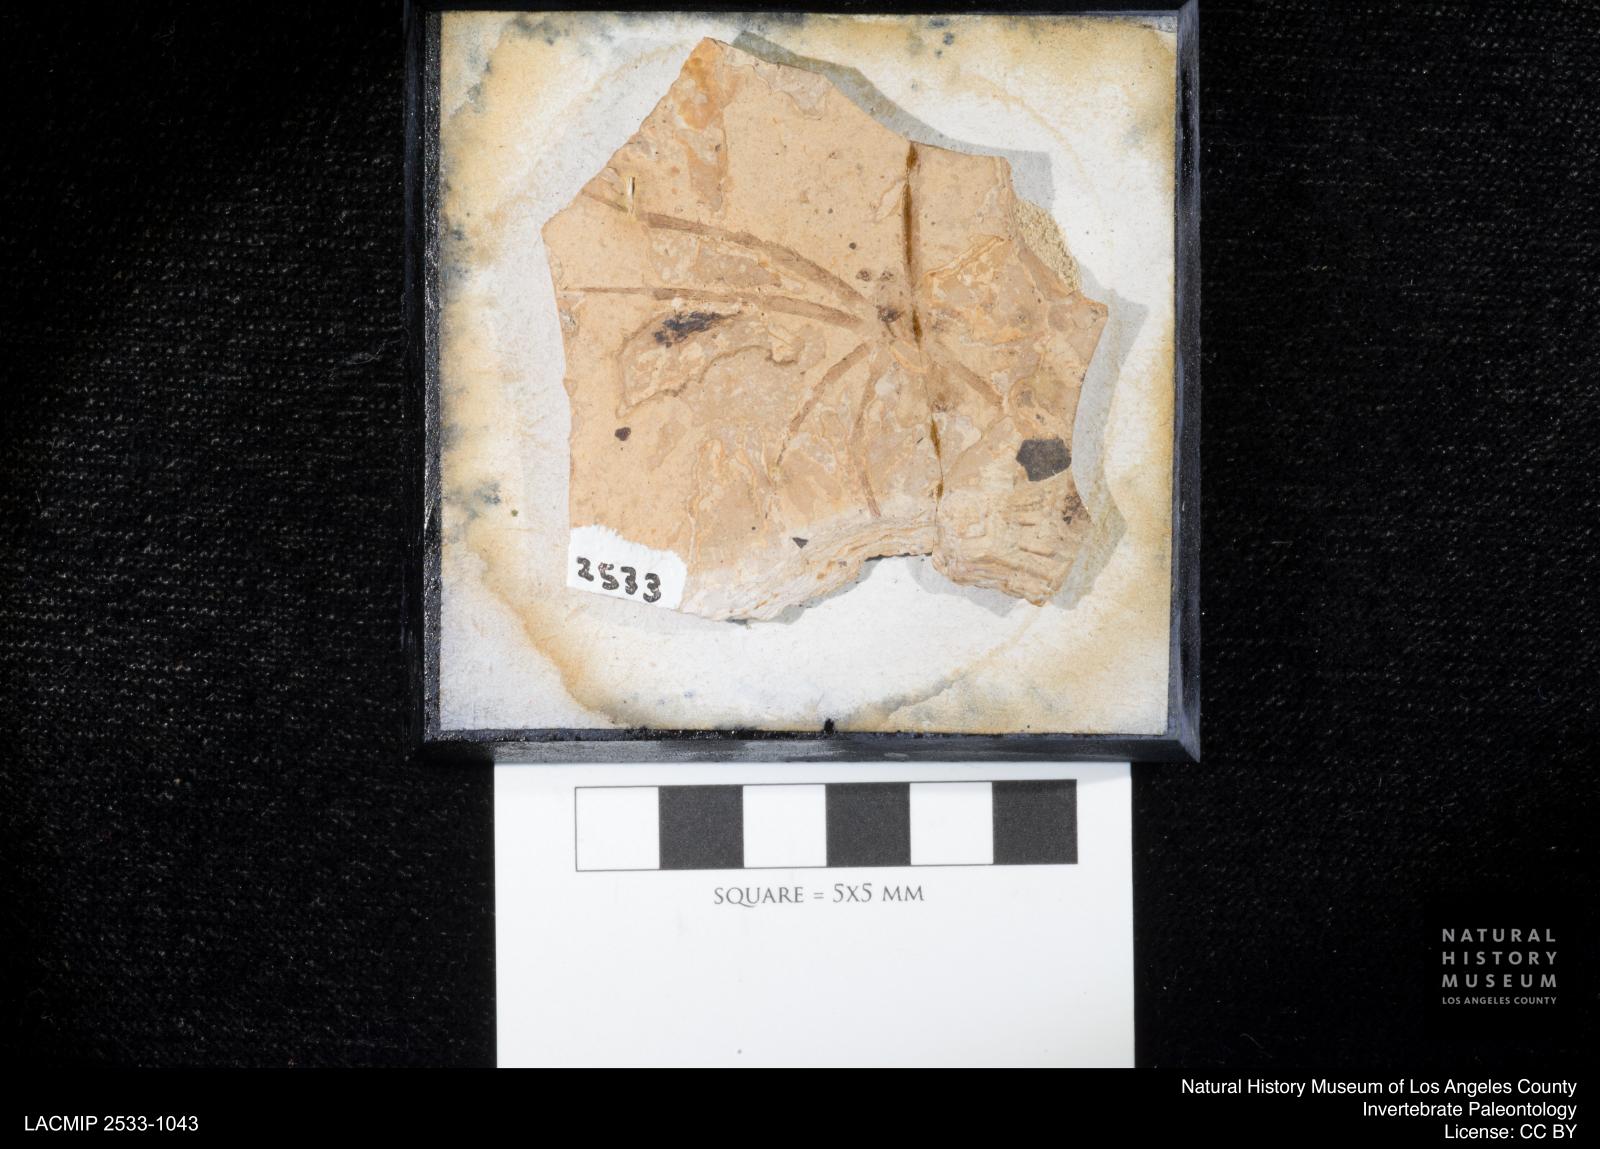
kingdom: Animalia
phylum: Arthropoda
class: Arachnida
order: Araneae
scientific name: Araneae
